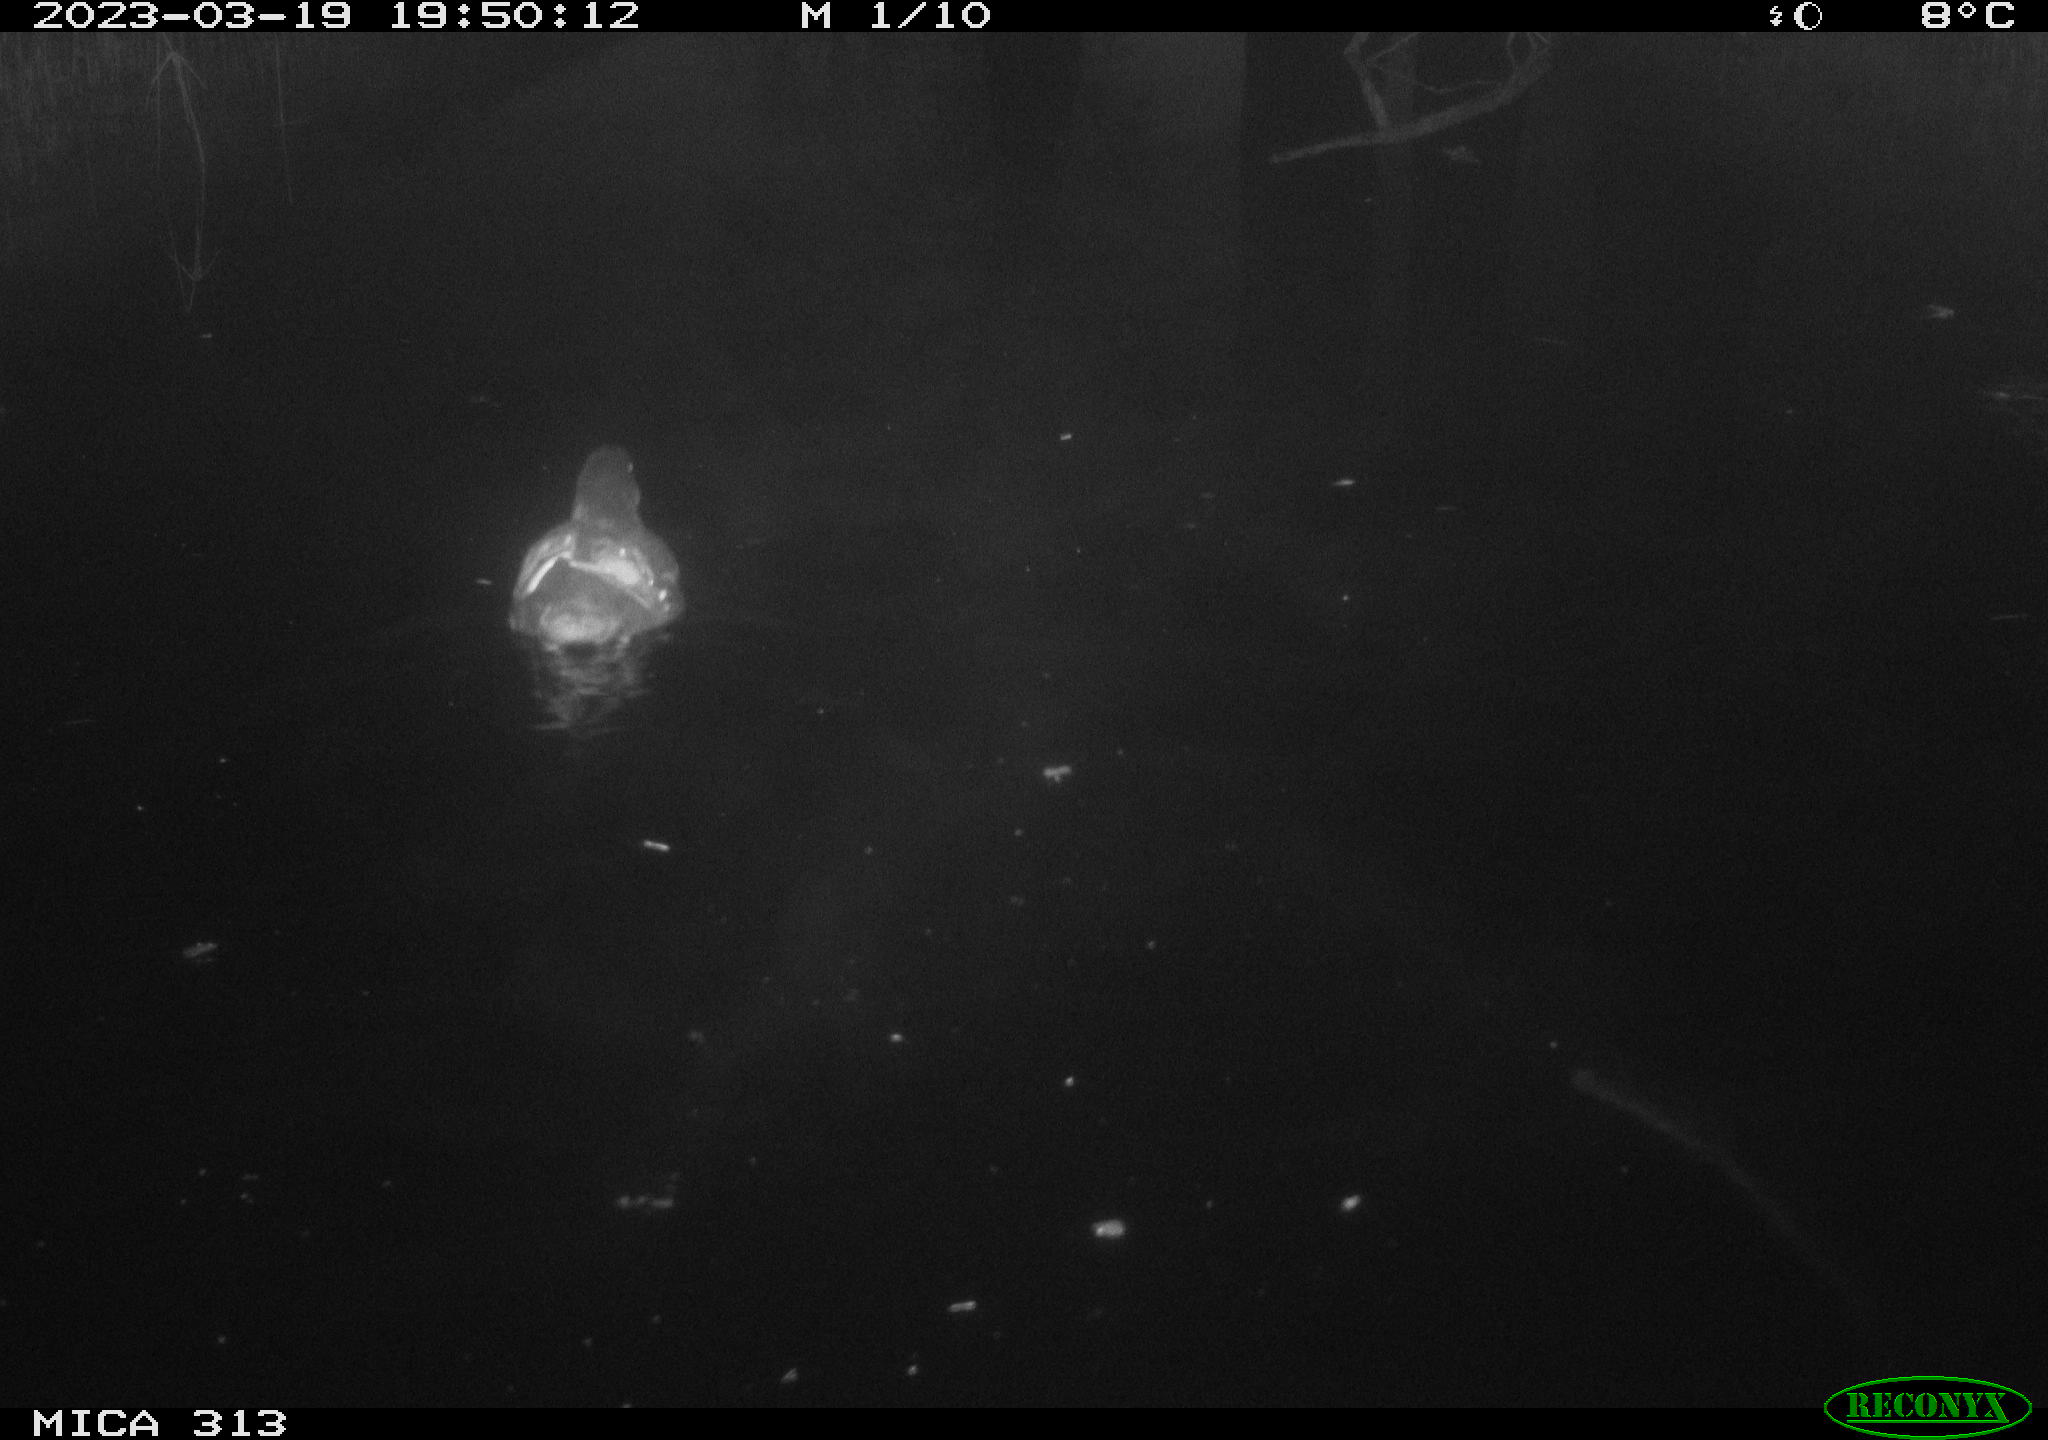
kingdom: Animalia
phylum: Chordata
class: Aves
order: Gruiformes
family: Rallidae
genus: Gallinula
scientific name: Gallinula chloropus
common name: Common moorhen
